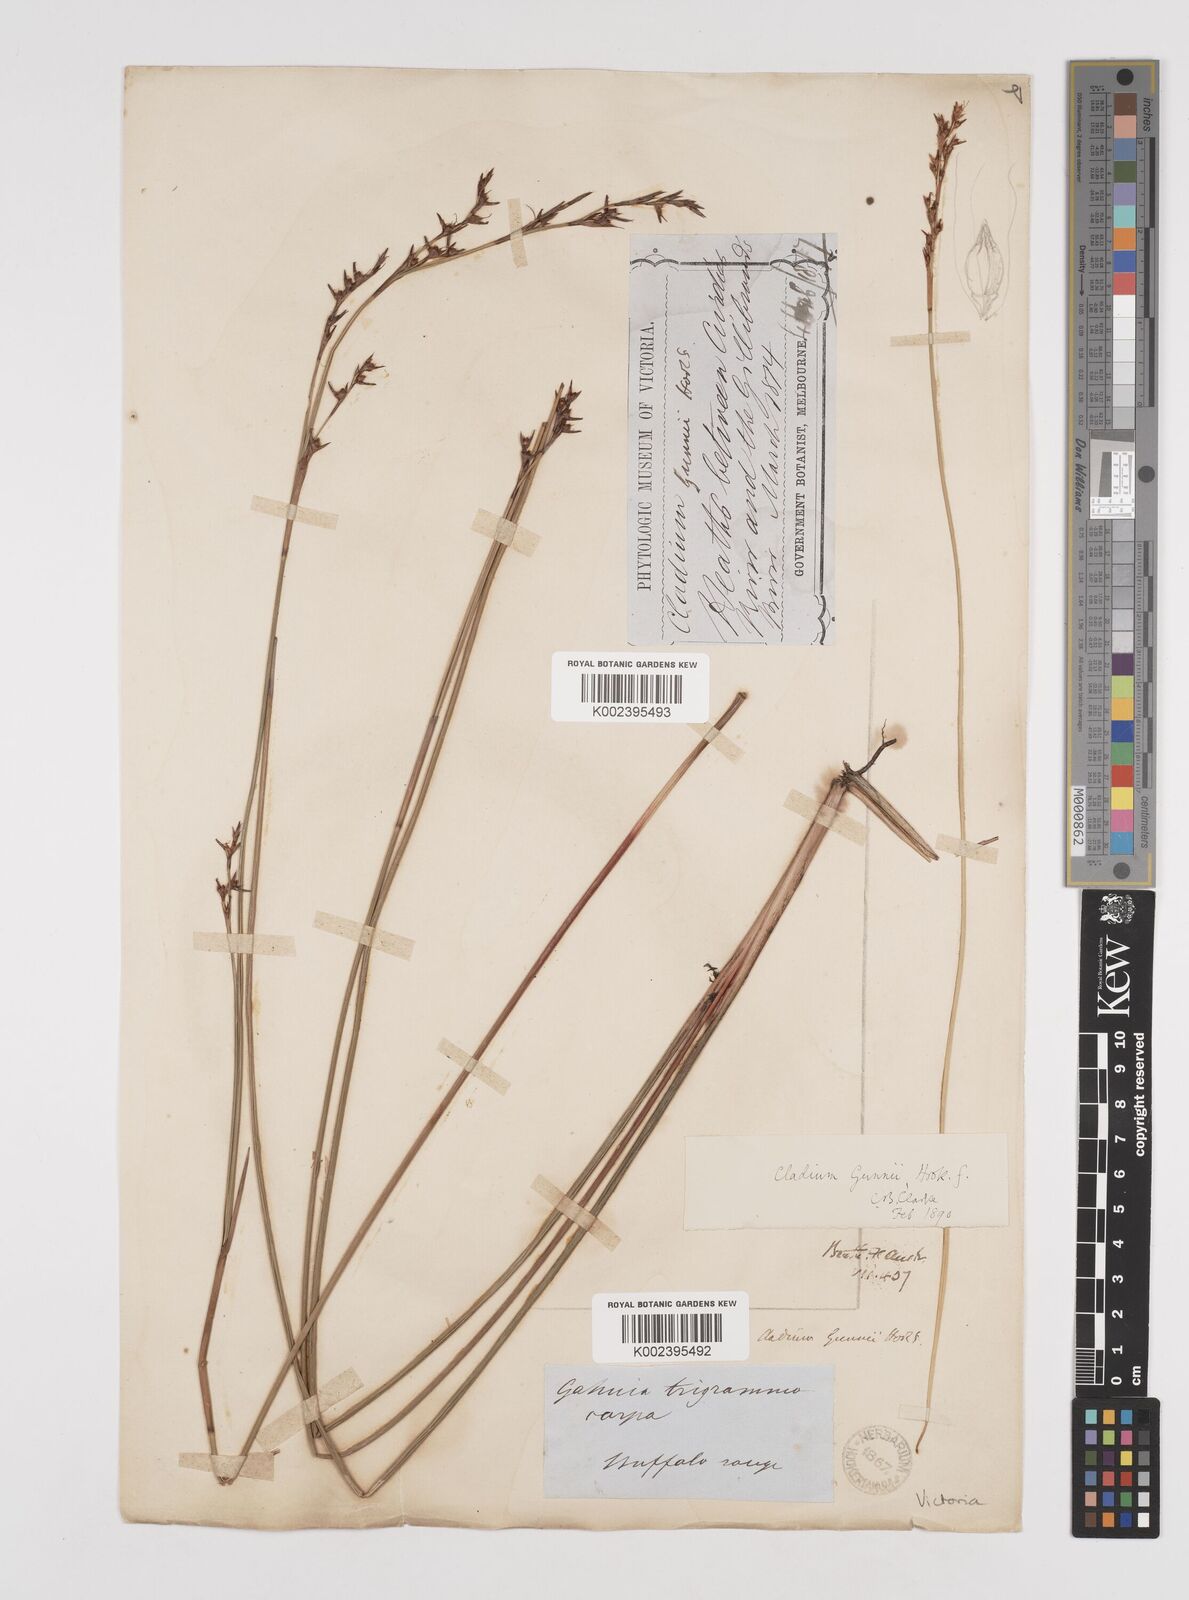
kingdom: Plantae
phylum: Tracheophyta
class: Liliopsida
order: Poales
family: Cyperaceae
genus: Machaerina
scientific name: Machaerina gunnii
